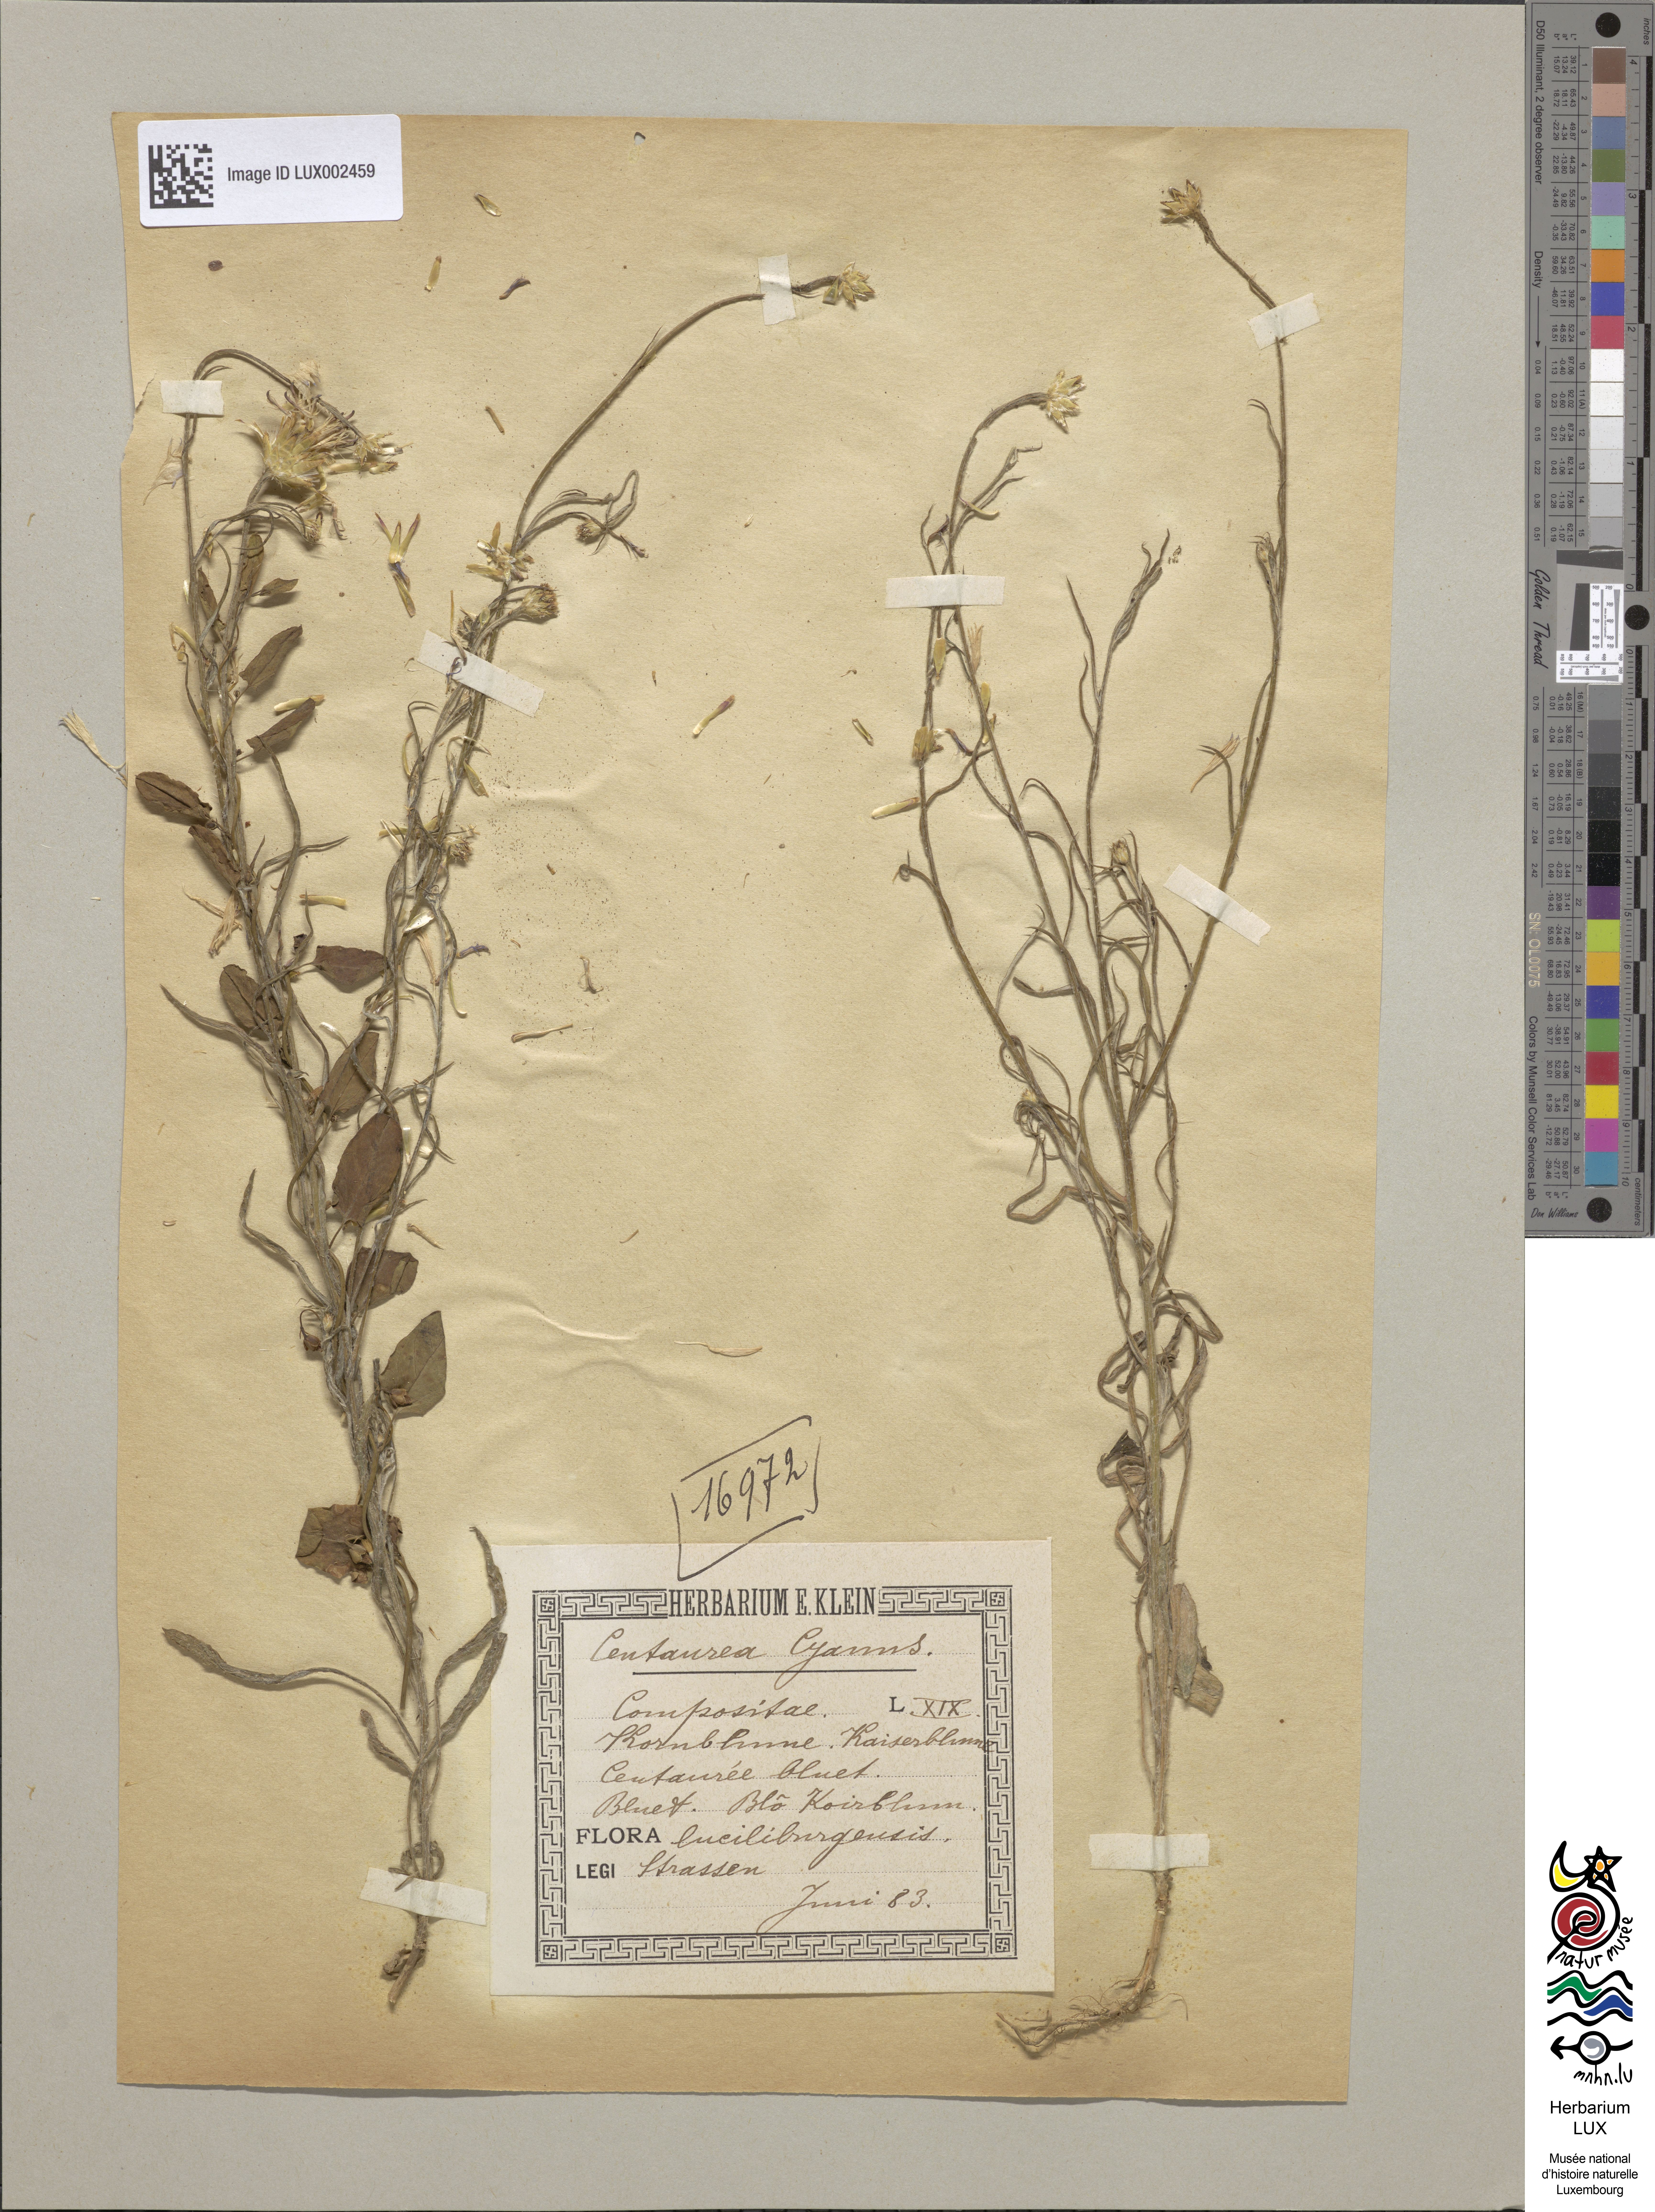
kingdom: Plantae
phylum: Tracheophyta
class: Magnoliopsida
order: Asterales
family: Asteraceae
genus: Centaurea
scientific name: Centaurea cyanus
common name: Cornflower
